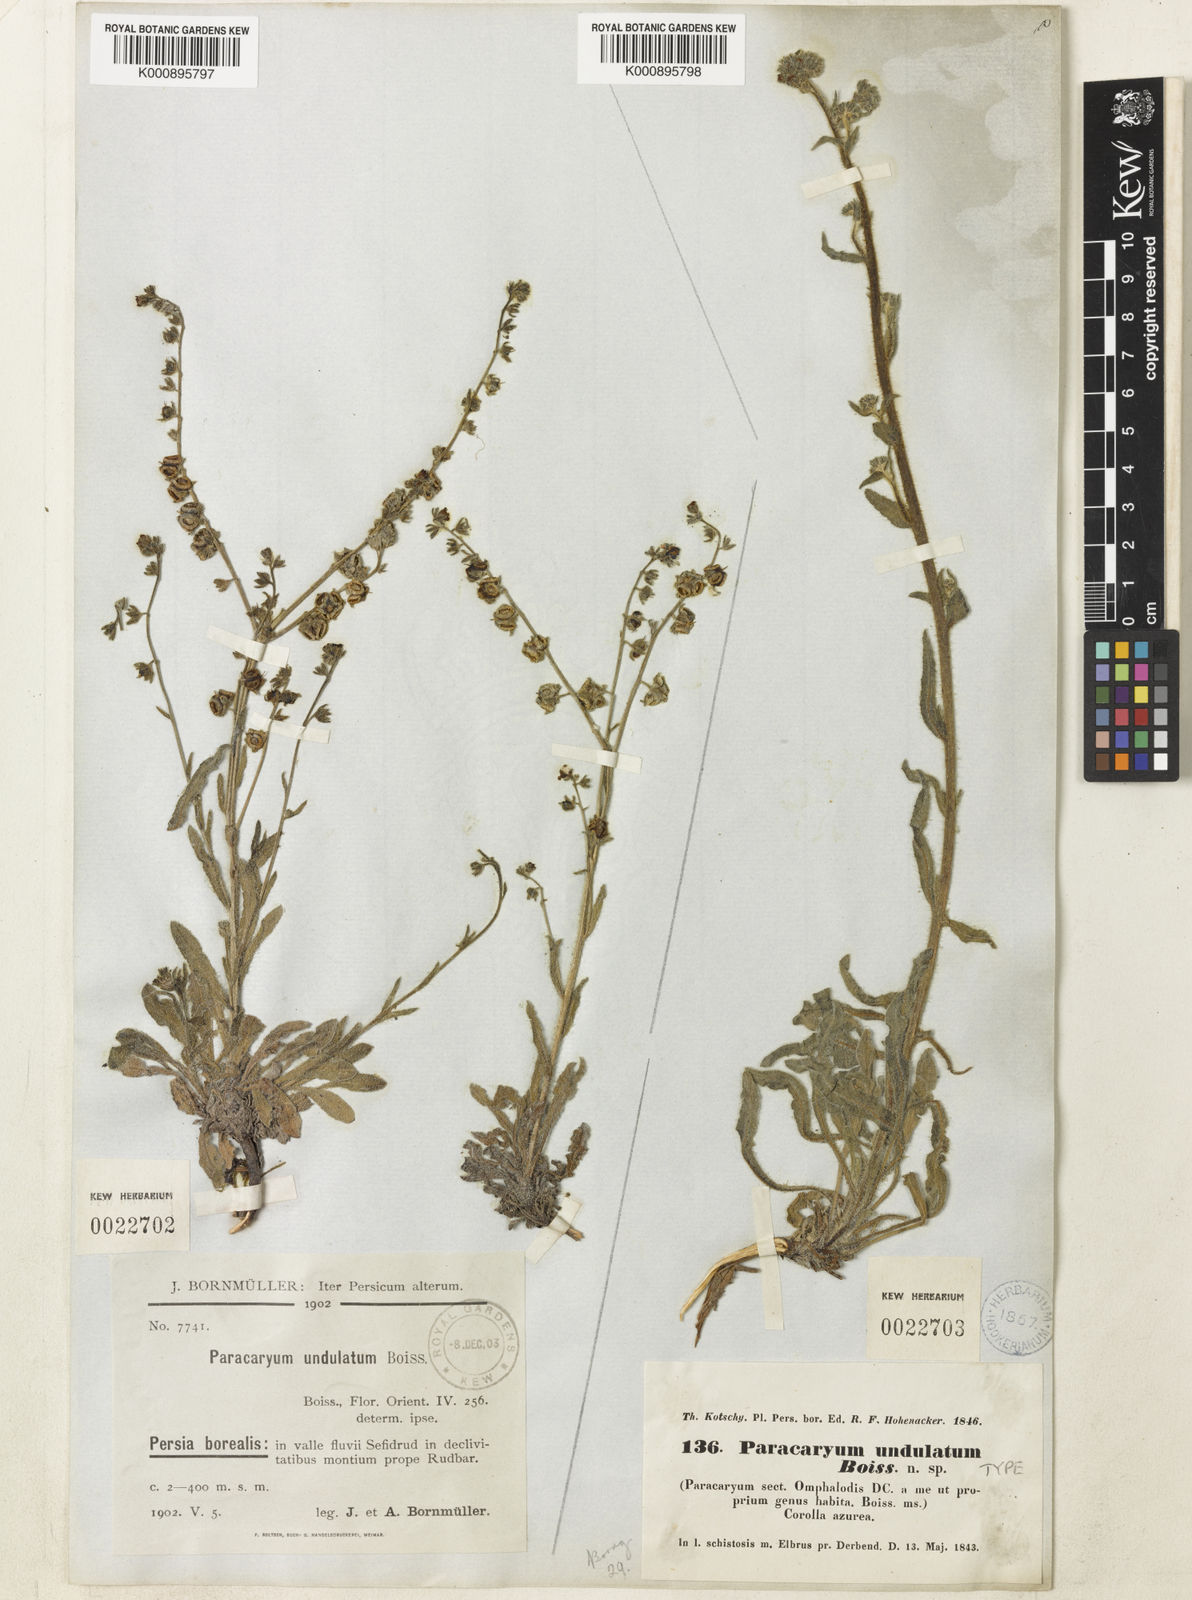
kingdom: Plantae
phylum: Tracheophyta
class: Magnoliopsida
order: Boraginales
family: Boraginaceae
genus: Paracaryum
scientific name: Paracaryum strictum
